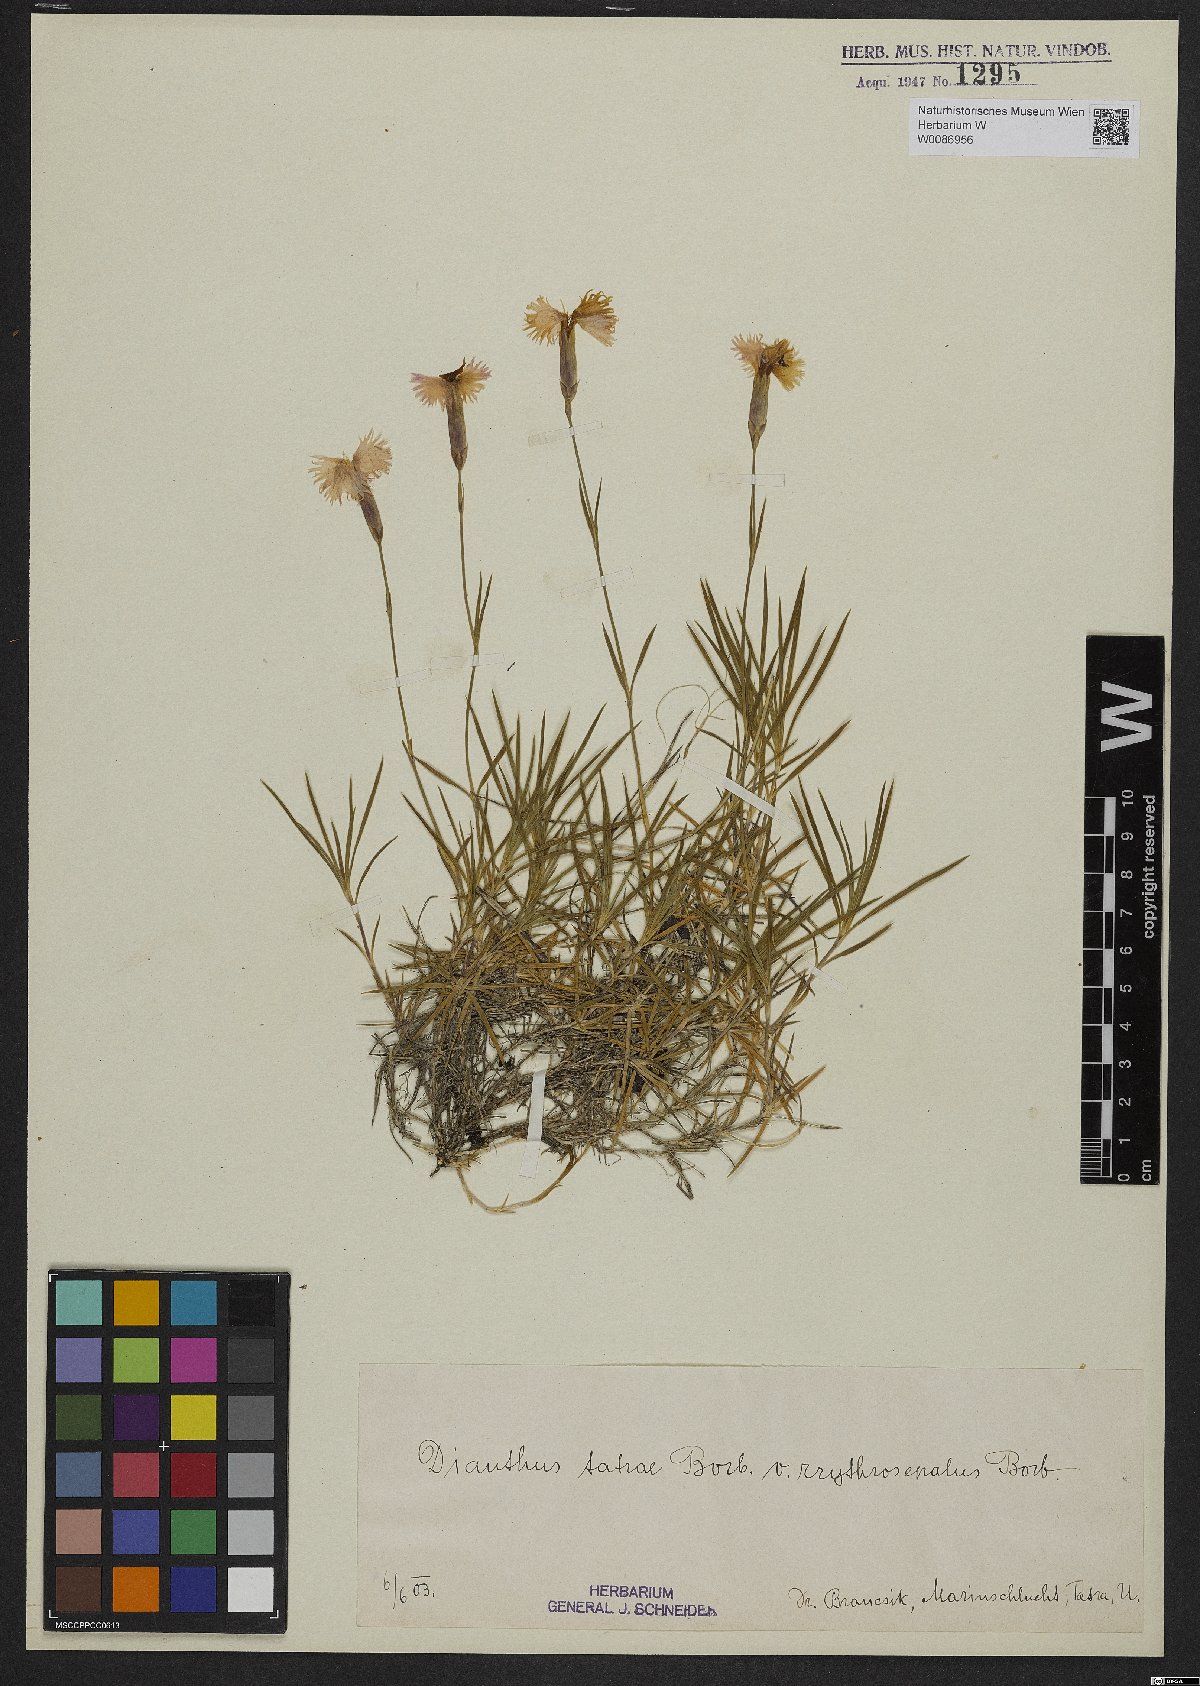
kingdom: Plantae
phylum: Tracheophyta
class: Magnoliopsida
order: Caryophyllales
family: Caryophyllaceae
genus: Dianthus
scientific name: Dianthus tatrae
